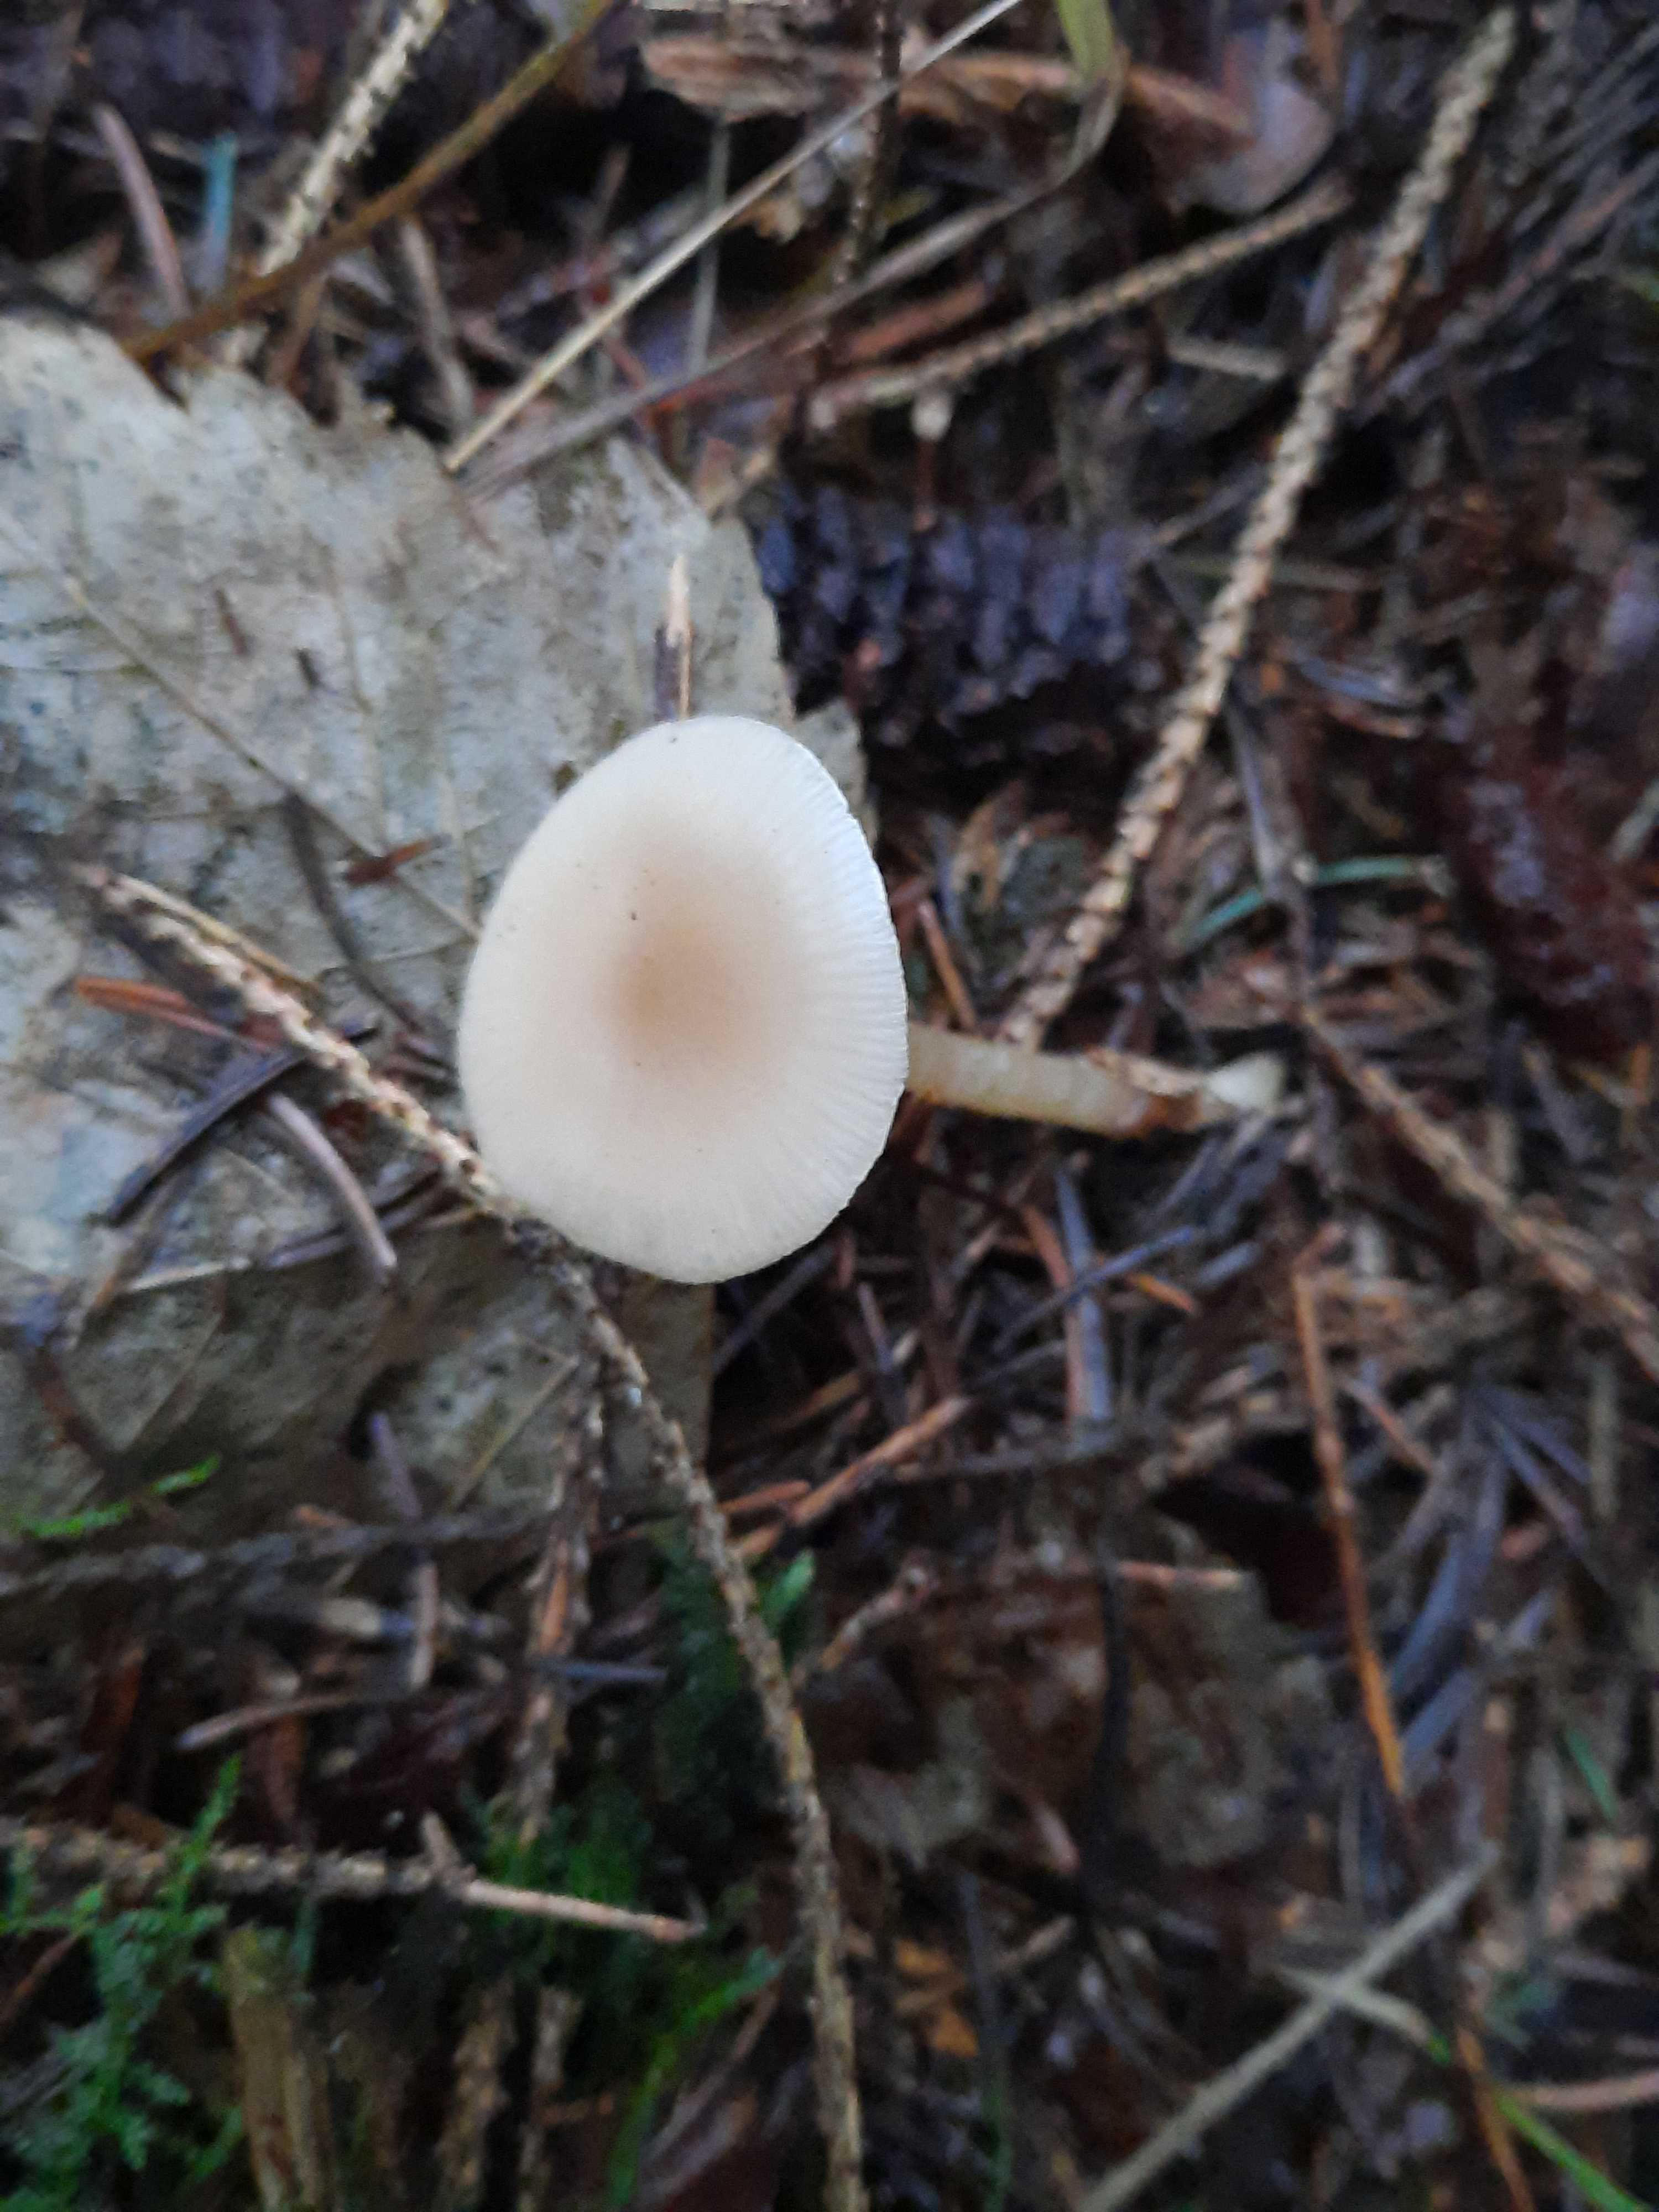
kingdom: Fungi
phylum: Basidiomycota
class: Agaricomycetes
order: Agaricales
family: Tricholomataceae
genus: Clitocybe
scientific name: Clitocybe fragrans
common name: vellugtende tragthat
